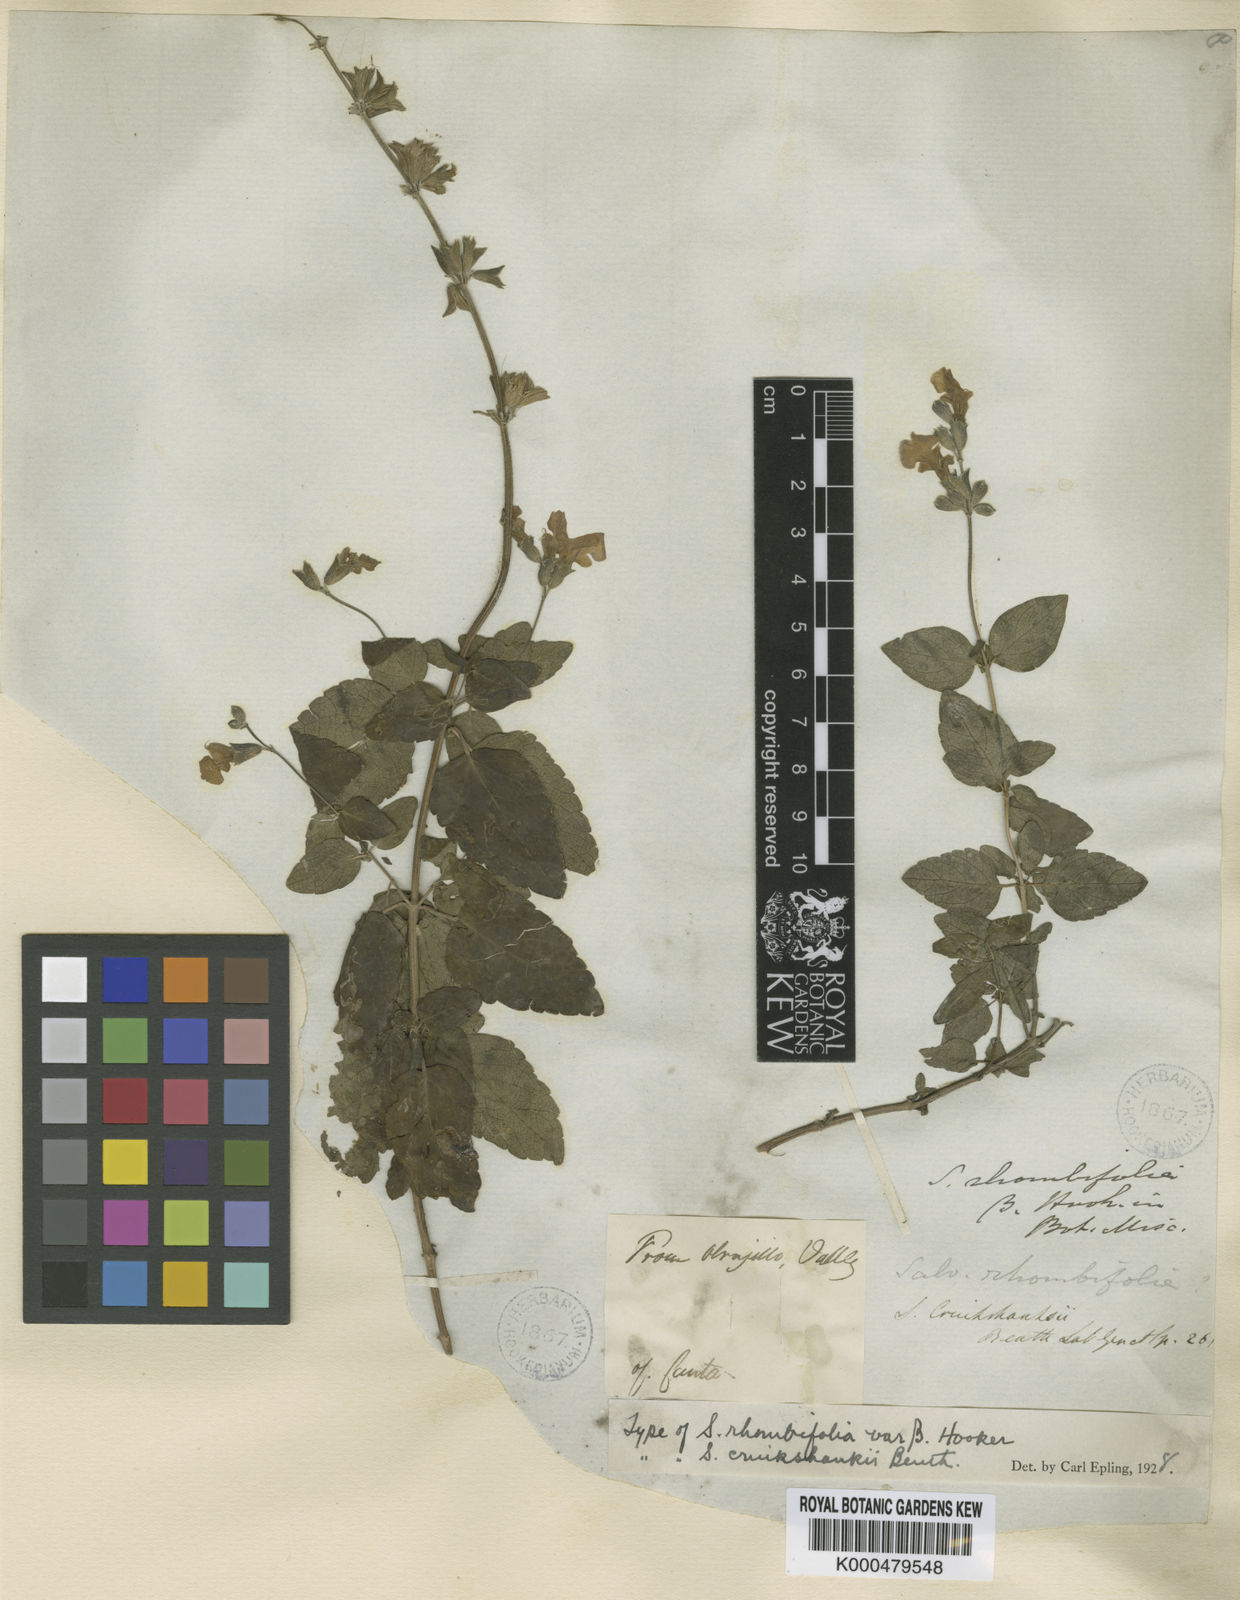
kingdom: Plantae
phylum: Tracheophyta
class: Magnoliopsida
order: Lamiales
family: Lamiaceae
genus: Salvia
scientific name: Salvia
